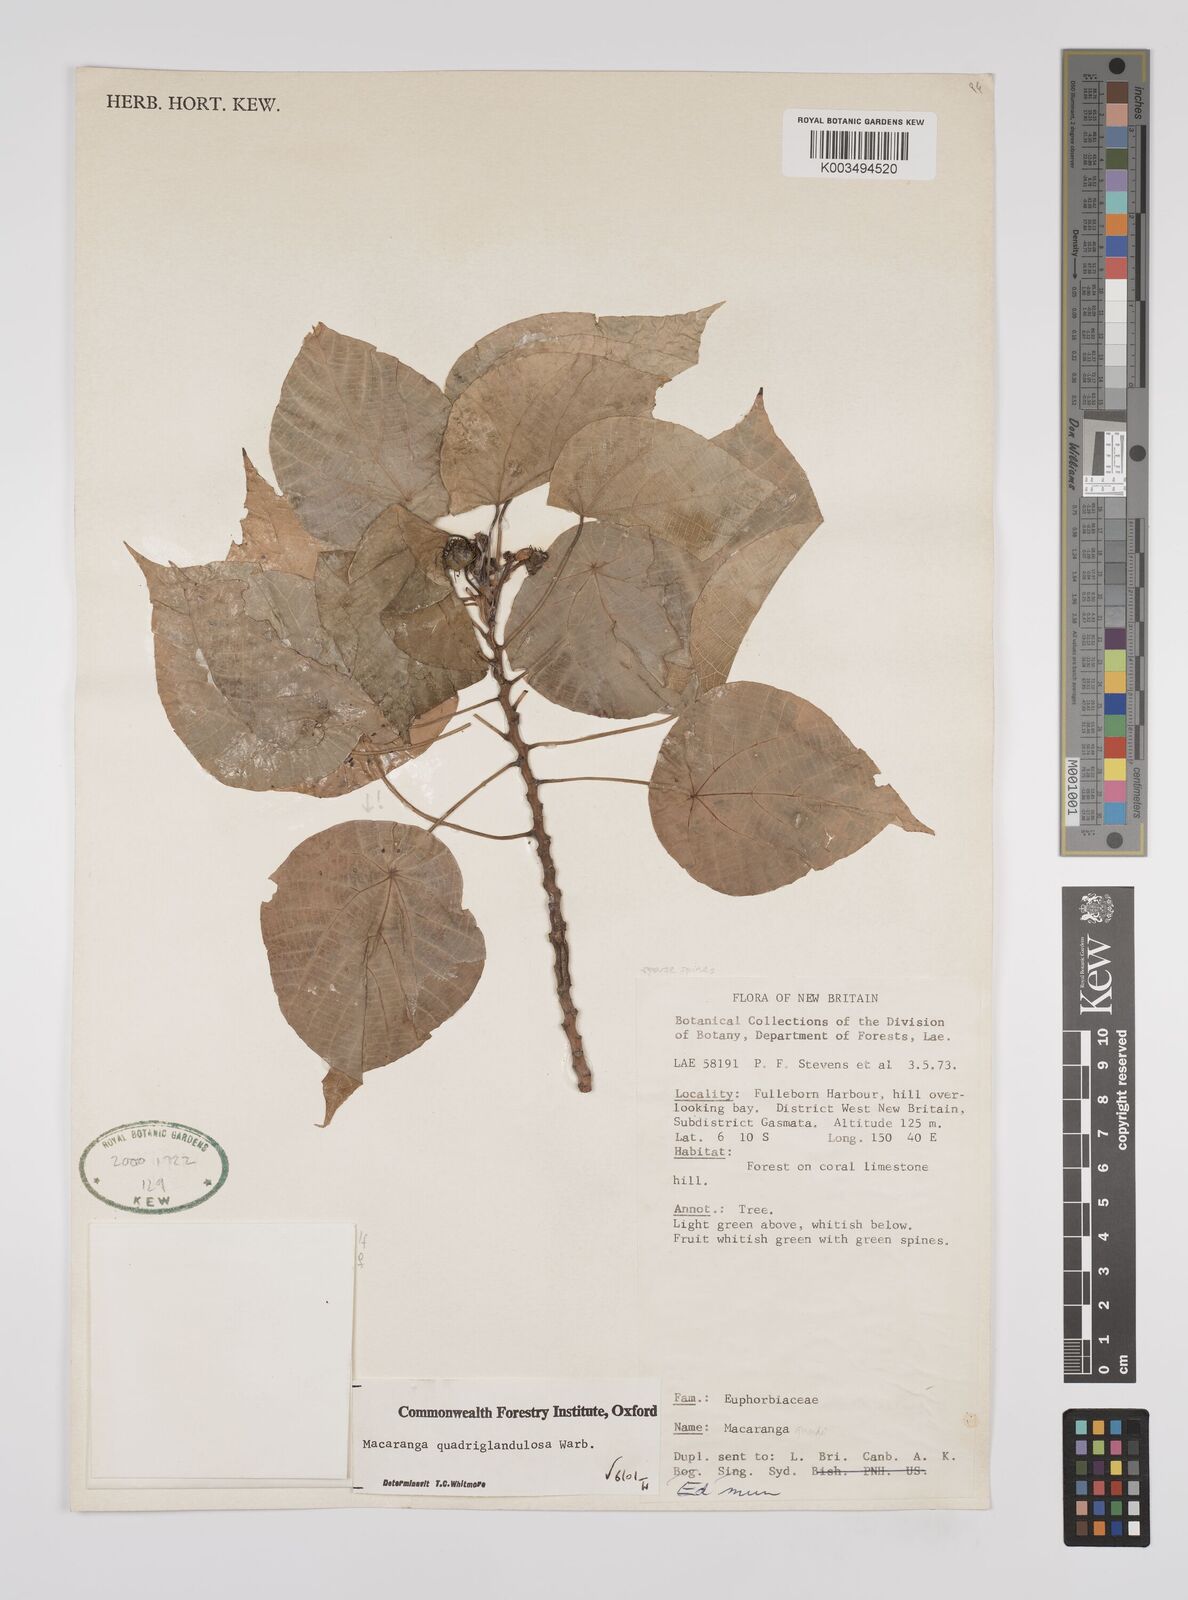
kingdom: Plantae
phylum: Tracheophyta
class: Magnoliopsida
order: Malpighiales
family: Euphorbiaceae
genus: Macaranga
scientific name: Macaranga quadriglandulosa
